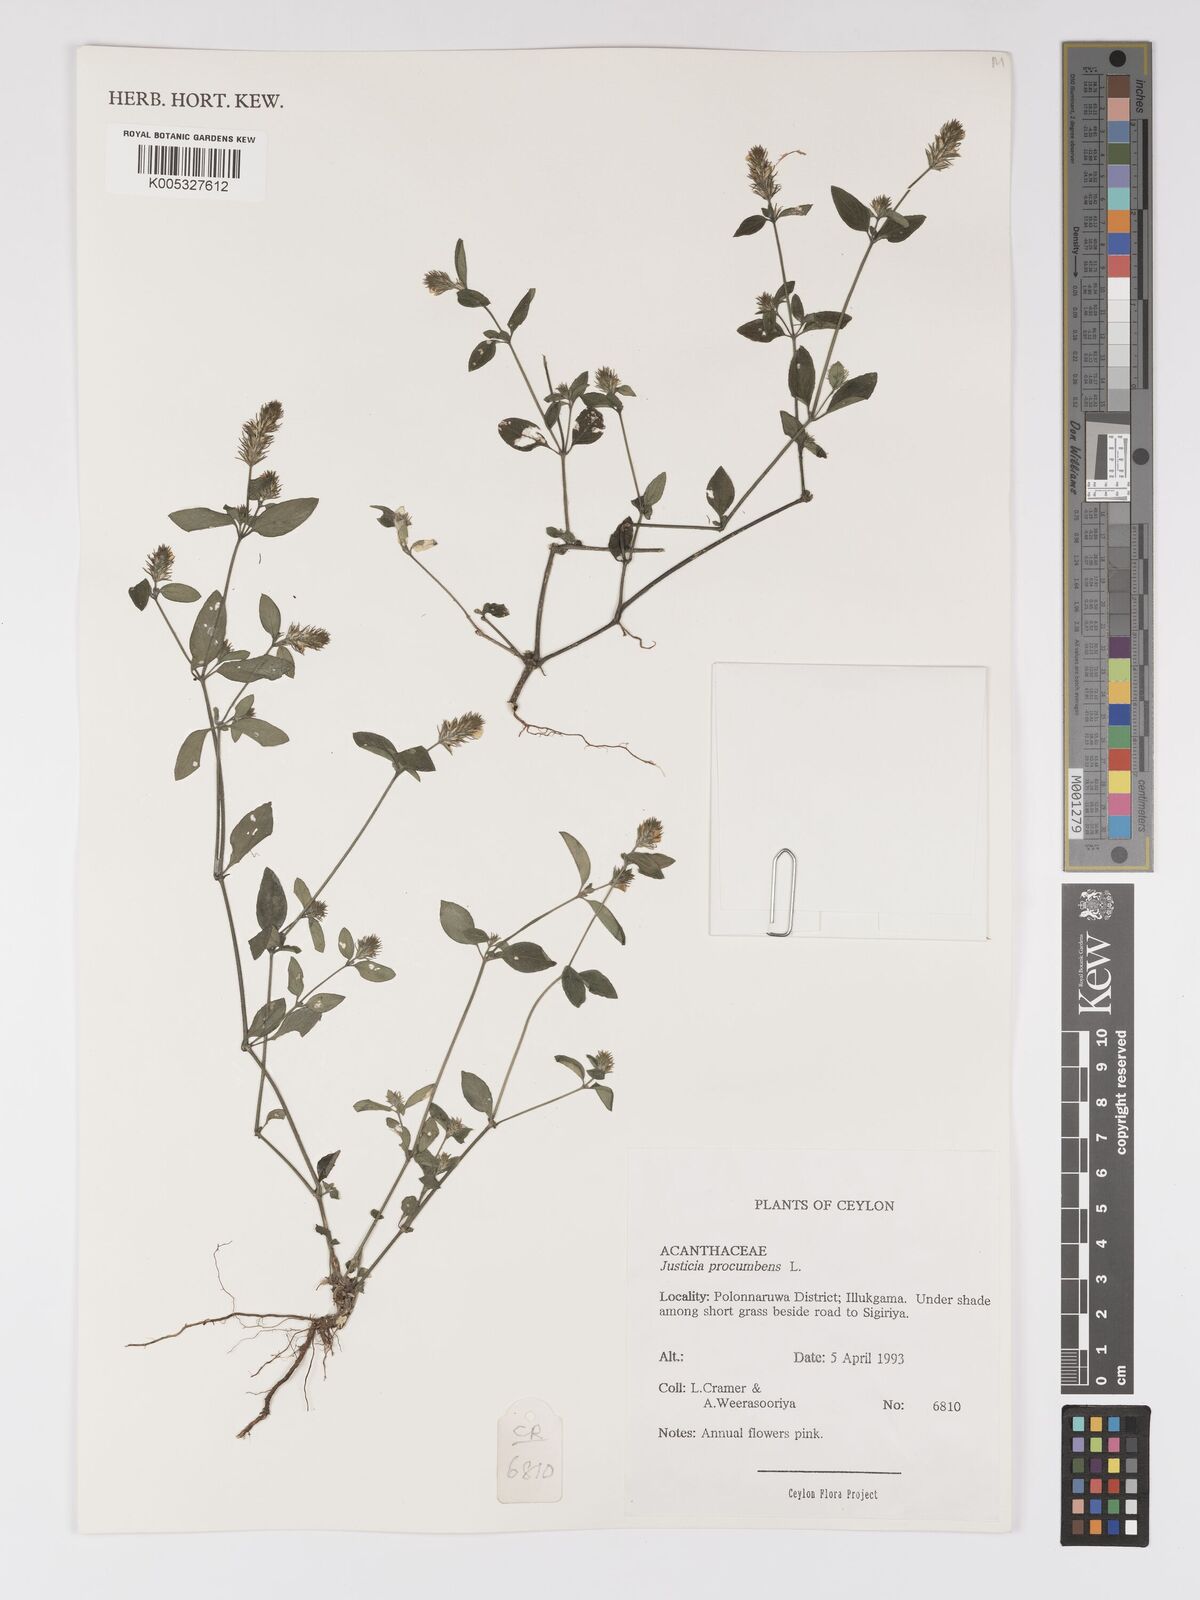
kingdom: Plantae
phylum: Tracheophyta
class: Magnoliopsida
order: Lamiales
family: Acanthaceae
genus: Rostellularia
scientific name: Rostellularia procumbens
